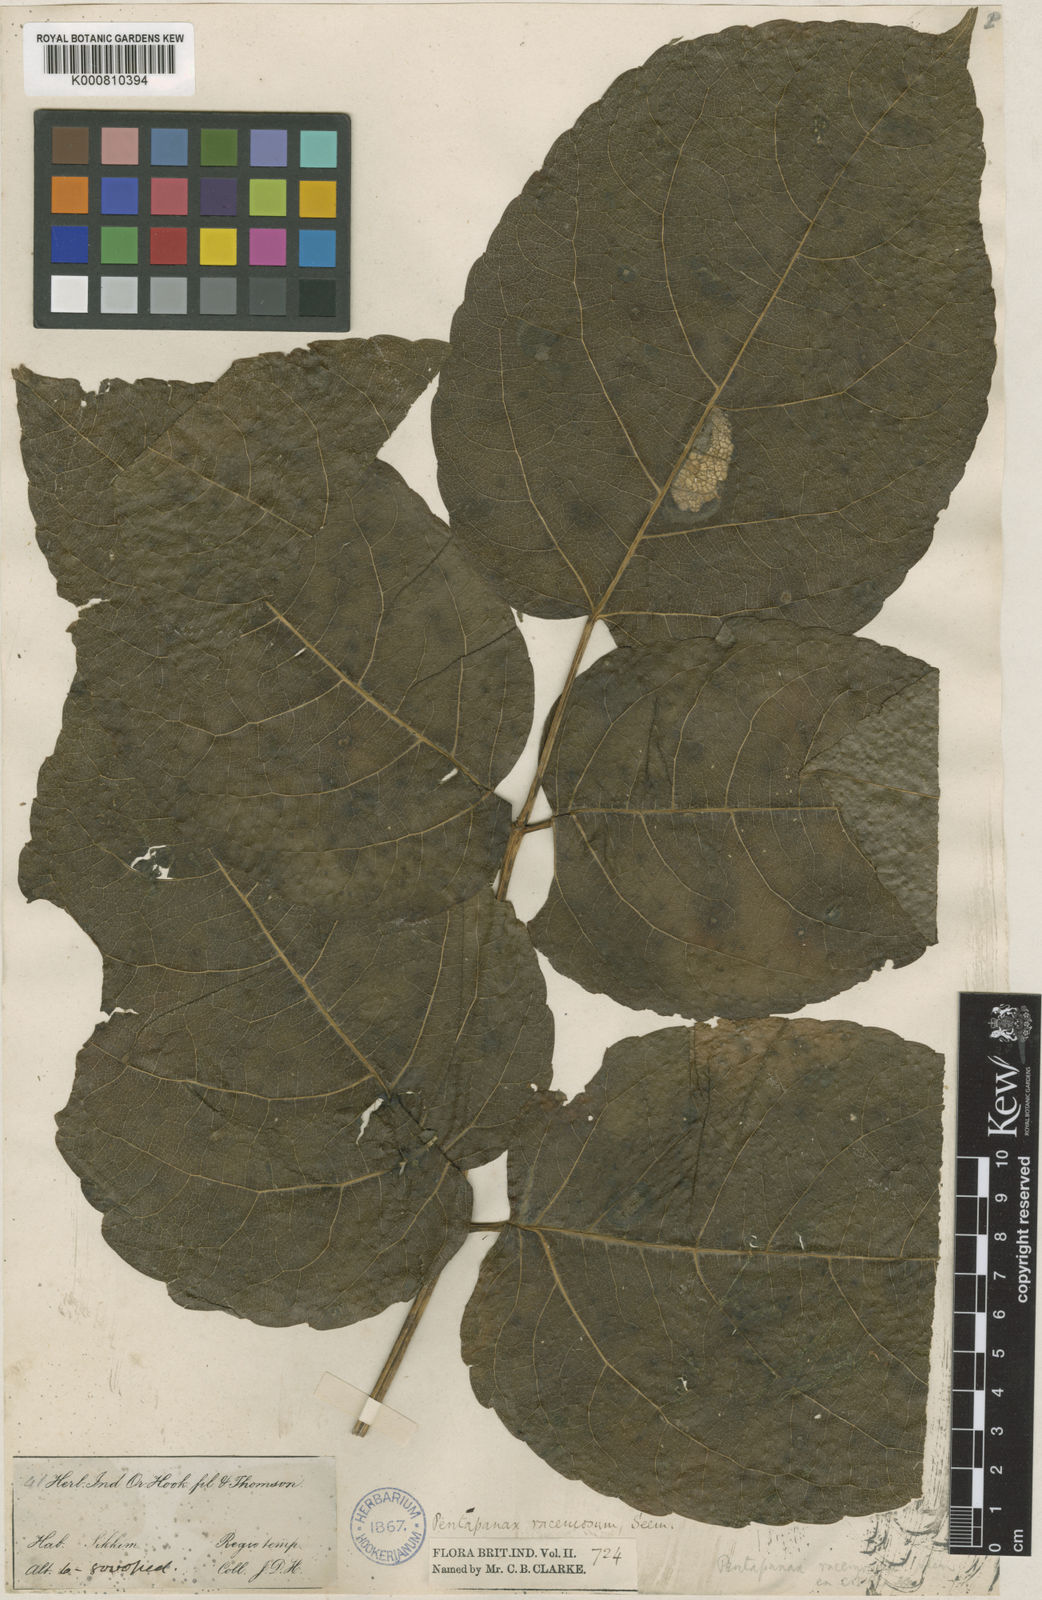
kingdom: Plantae
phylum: Tracheophyta
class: Magnoliopsida
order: Apiales
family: Araliaceae
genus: Aralia
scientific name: Aralia racemosa
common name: American-spikenard
